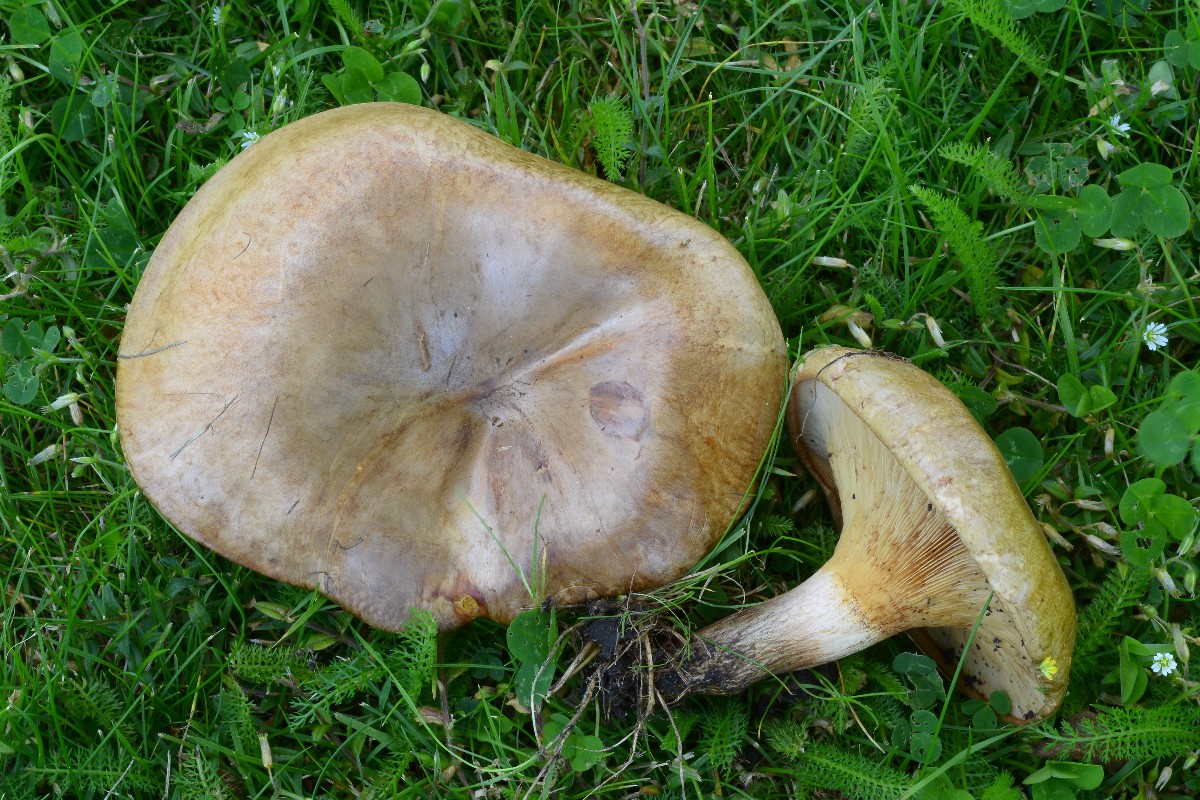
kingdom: Fungi
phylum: Basidiomycota
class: Agaricomycetes
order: Boletales
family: Paxillaceae
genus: Paxillus
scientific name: Paxillus obscurisporus
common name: mahognisporet netbladhat
